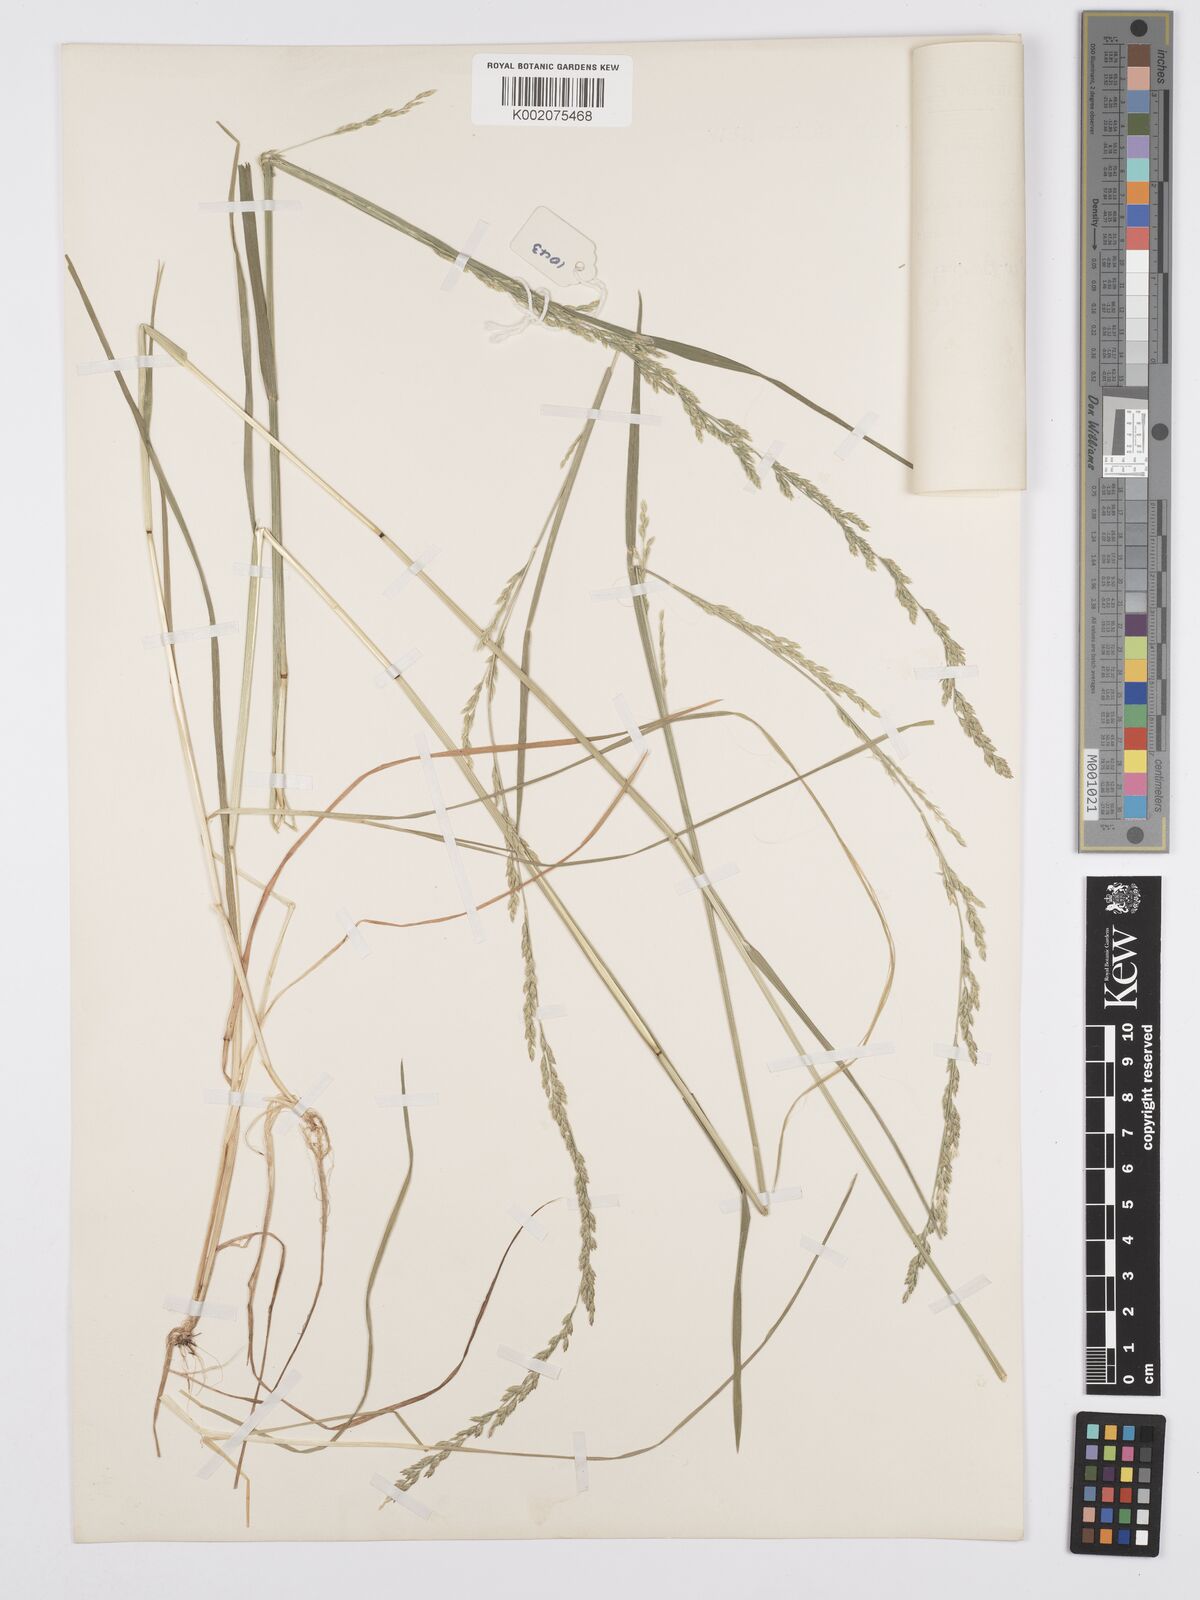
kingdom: Plantae
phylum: Tracheophyta
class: Liliopsida
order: Poales
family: Poaceae
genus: Poa
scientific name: Poa leptoclada
